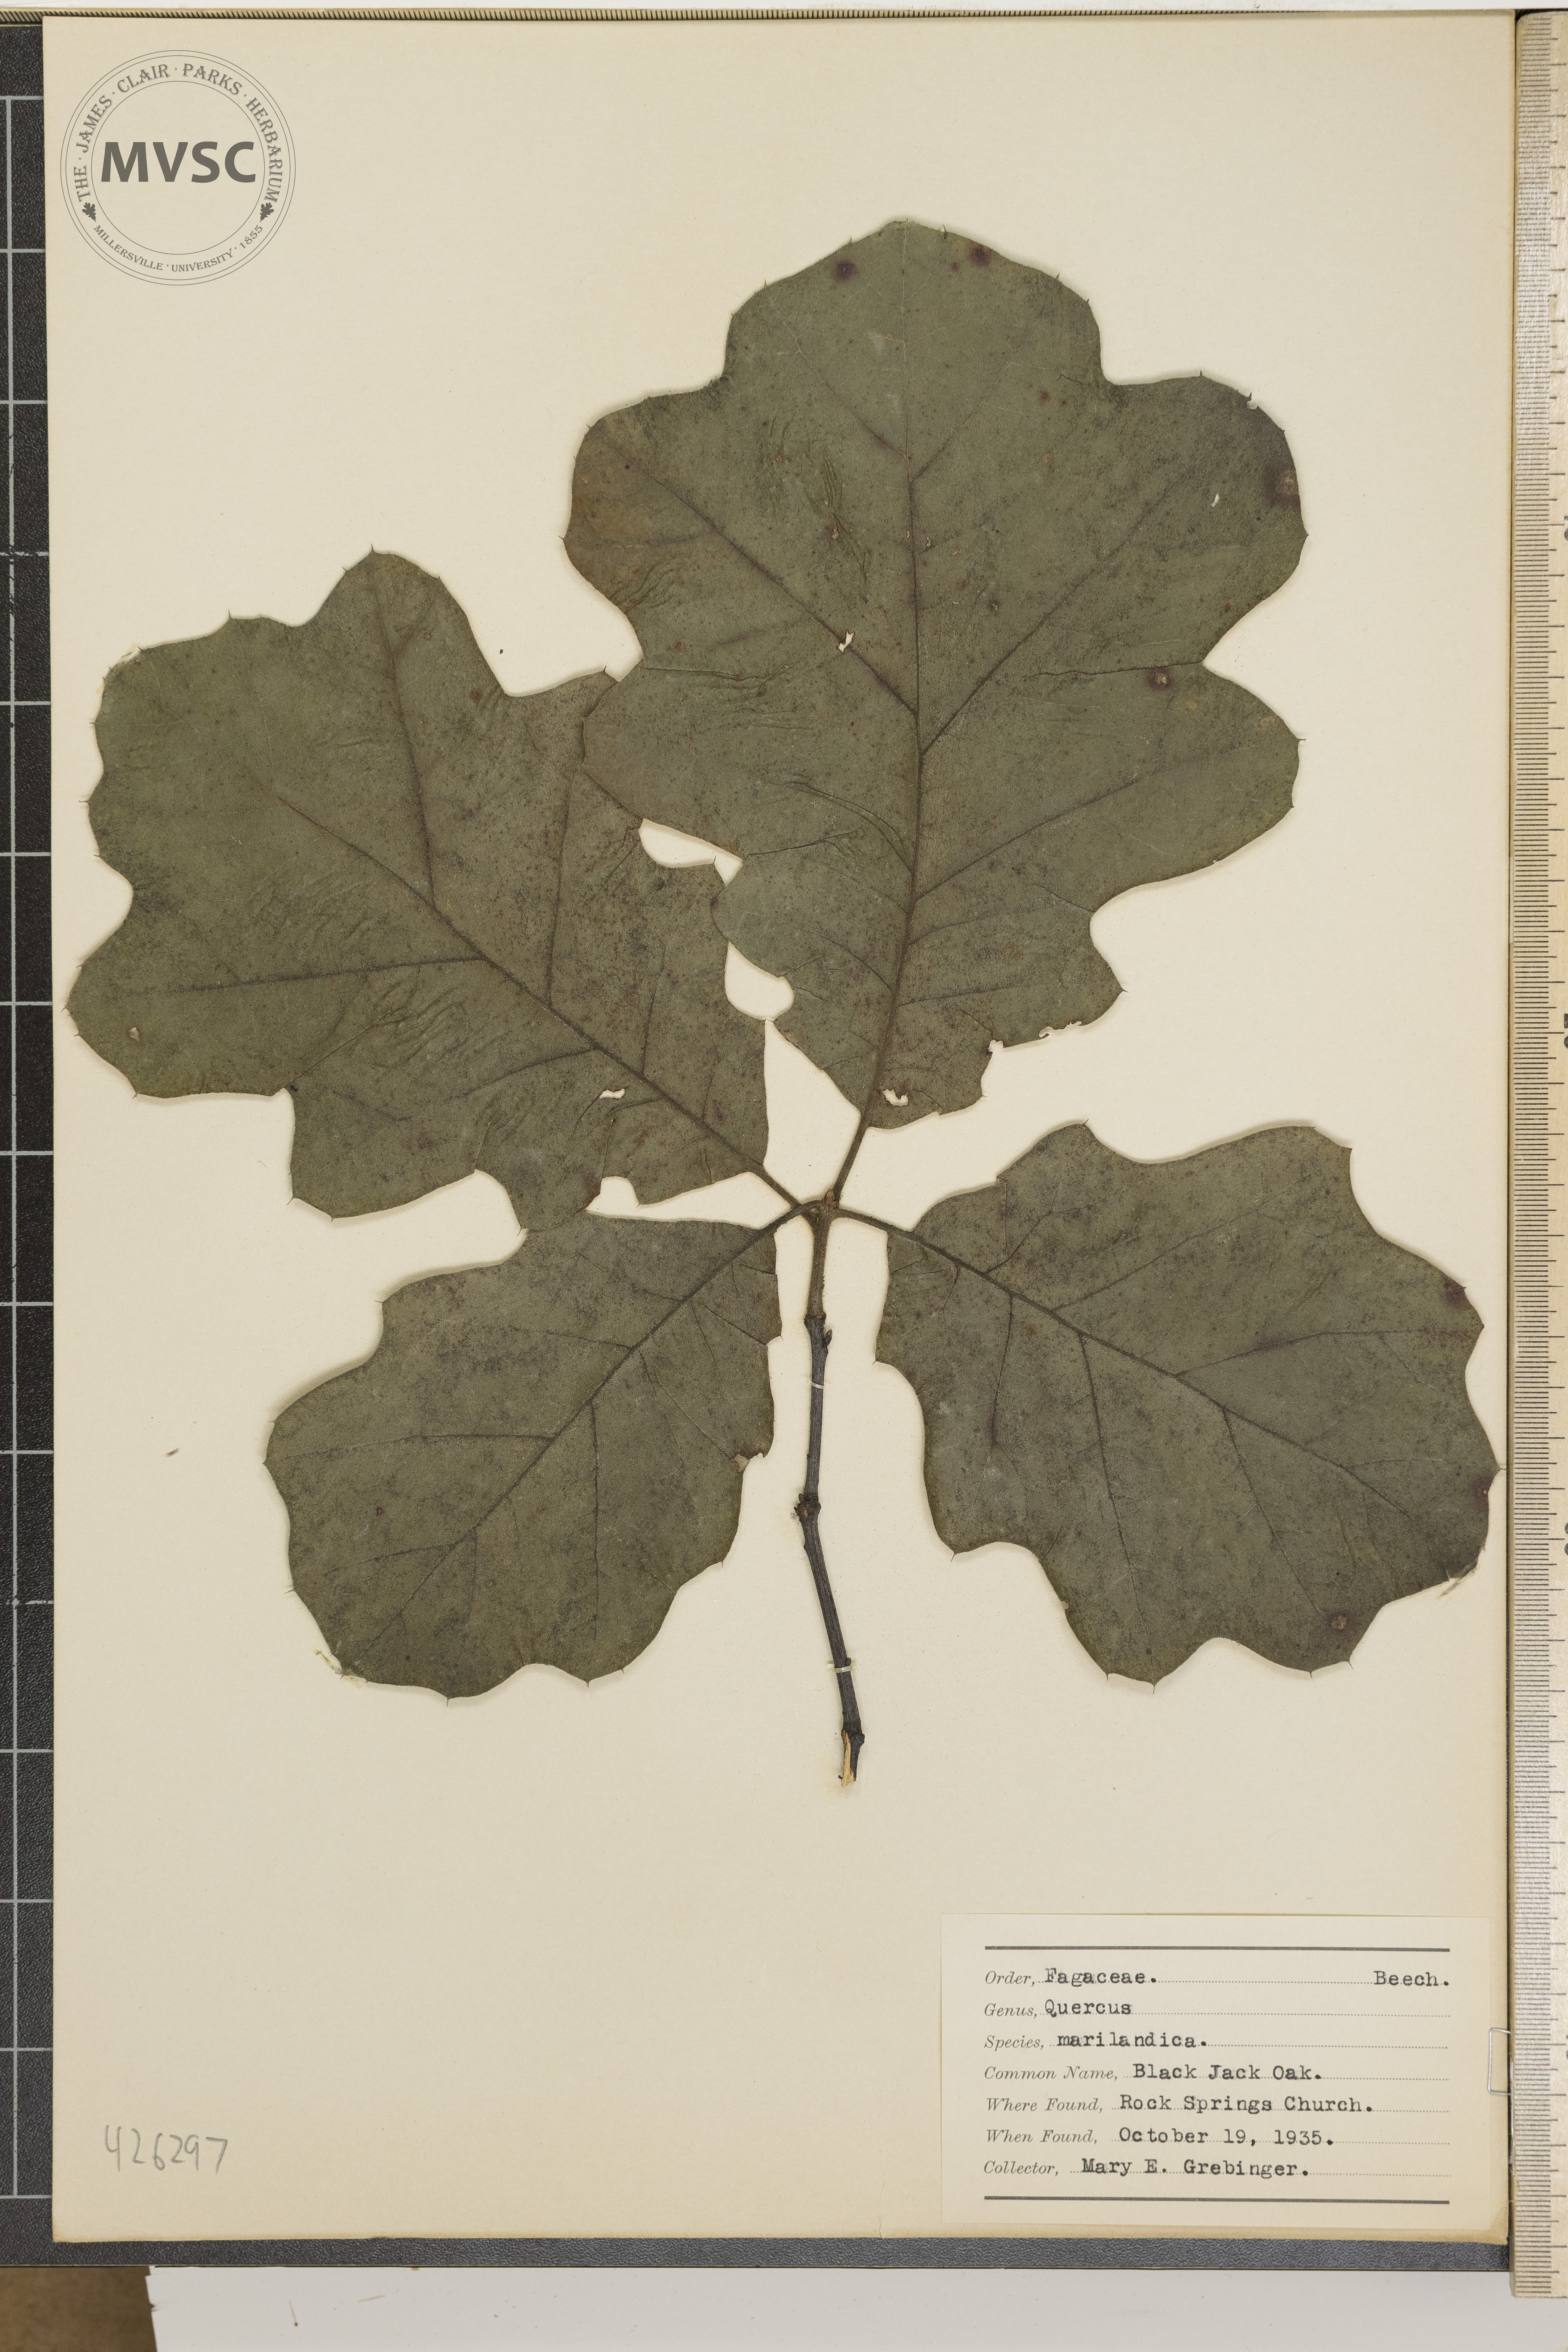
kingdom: Plantae
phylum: Tracheophyta
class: Magnoliopsida
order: Fagales
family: Fagaceae
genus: Quercus
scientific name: Quercus marilandica
